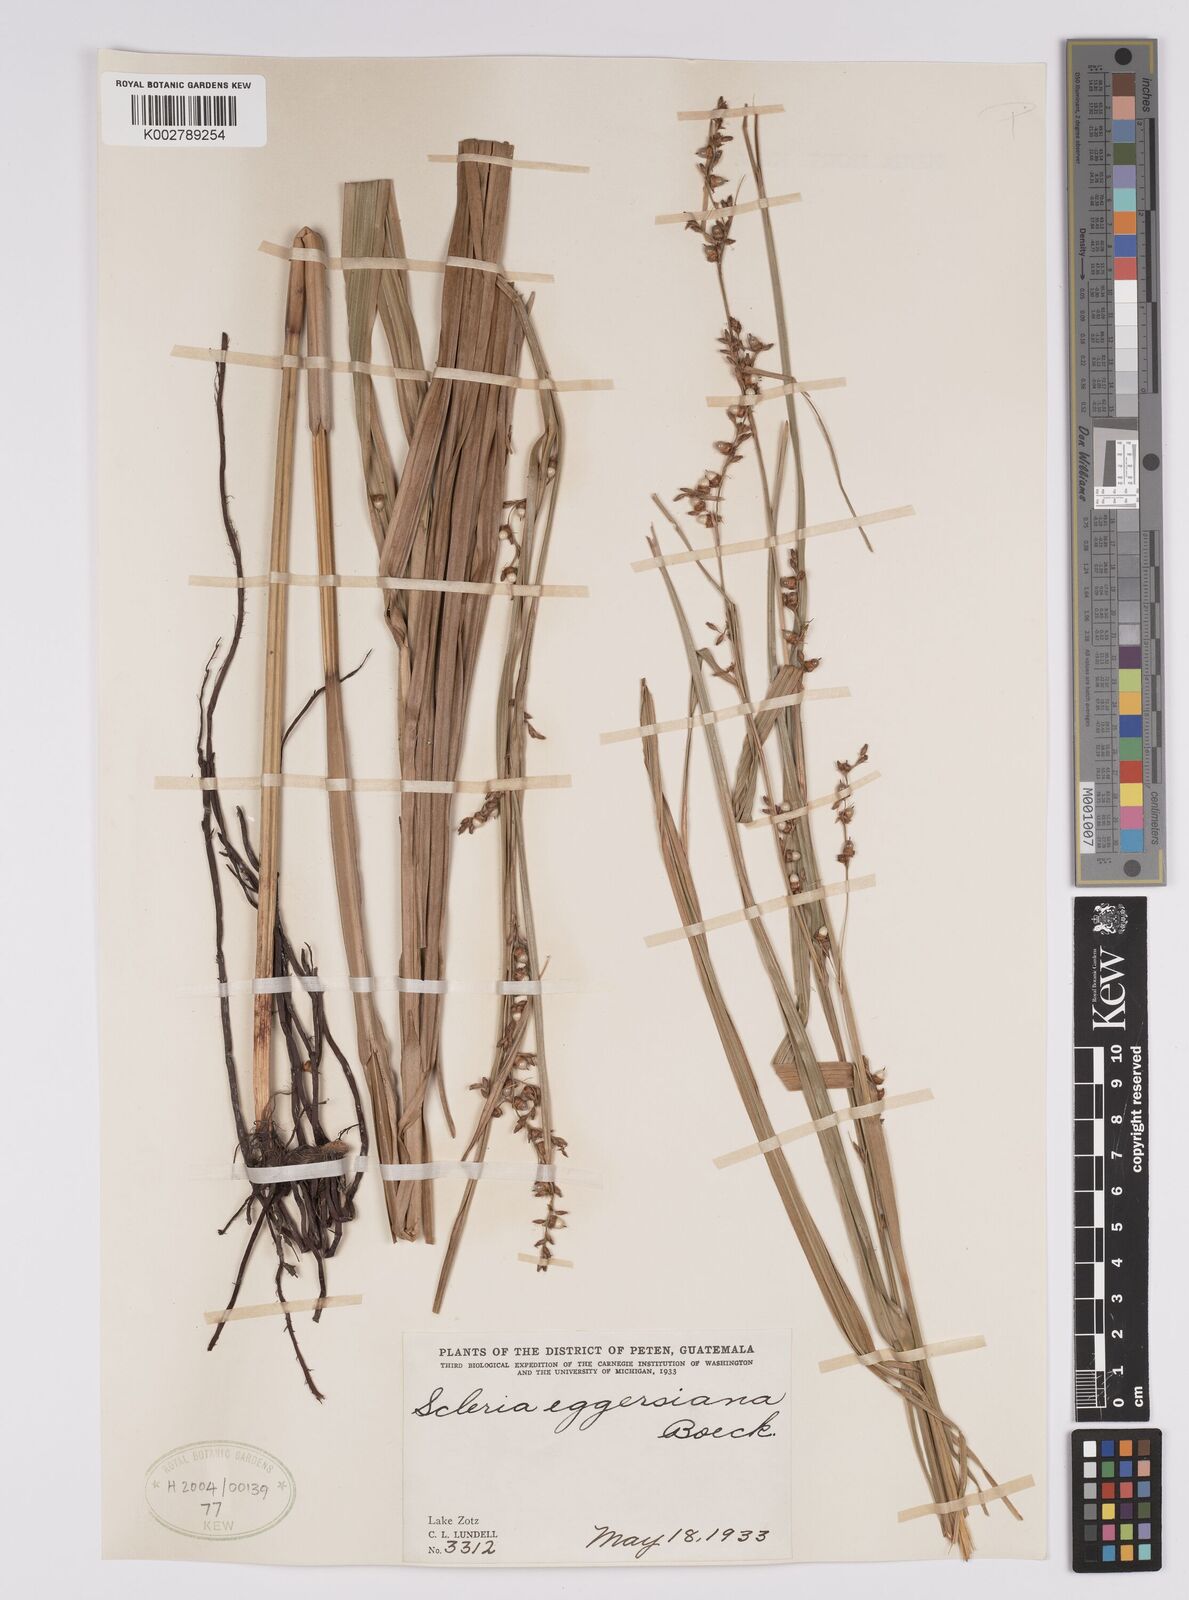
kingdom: Plantae
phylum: Tracheophyta
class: Liliopsida
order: Poales
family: Cyperaceae
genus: Scleria
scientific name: Scleria eggersiana
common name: Eggers' nutrush
